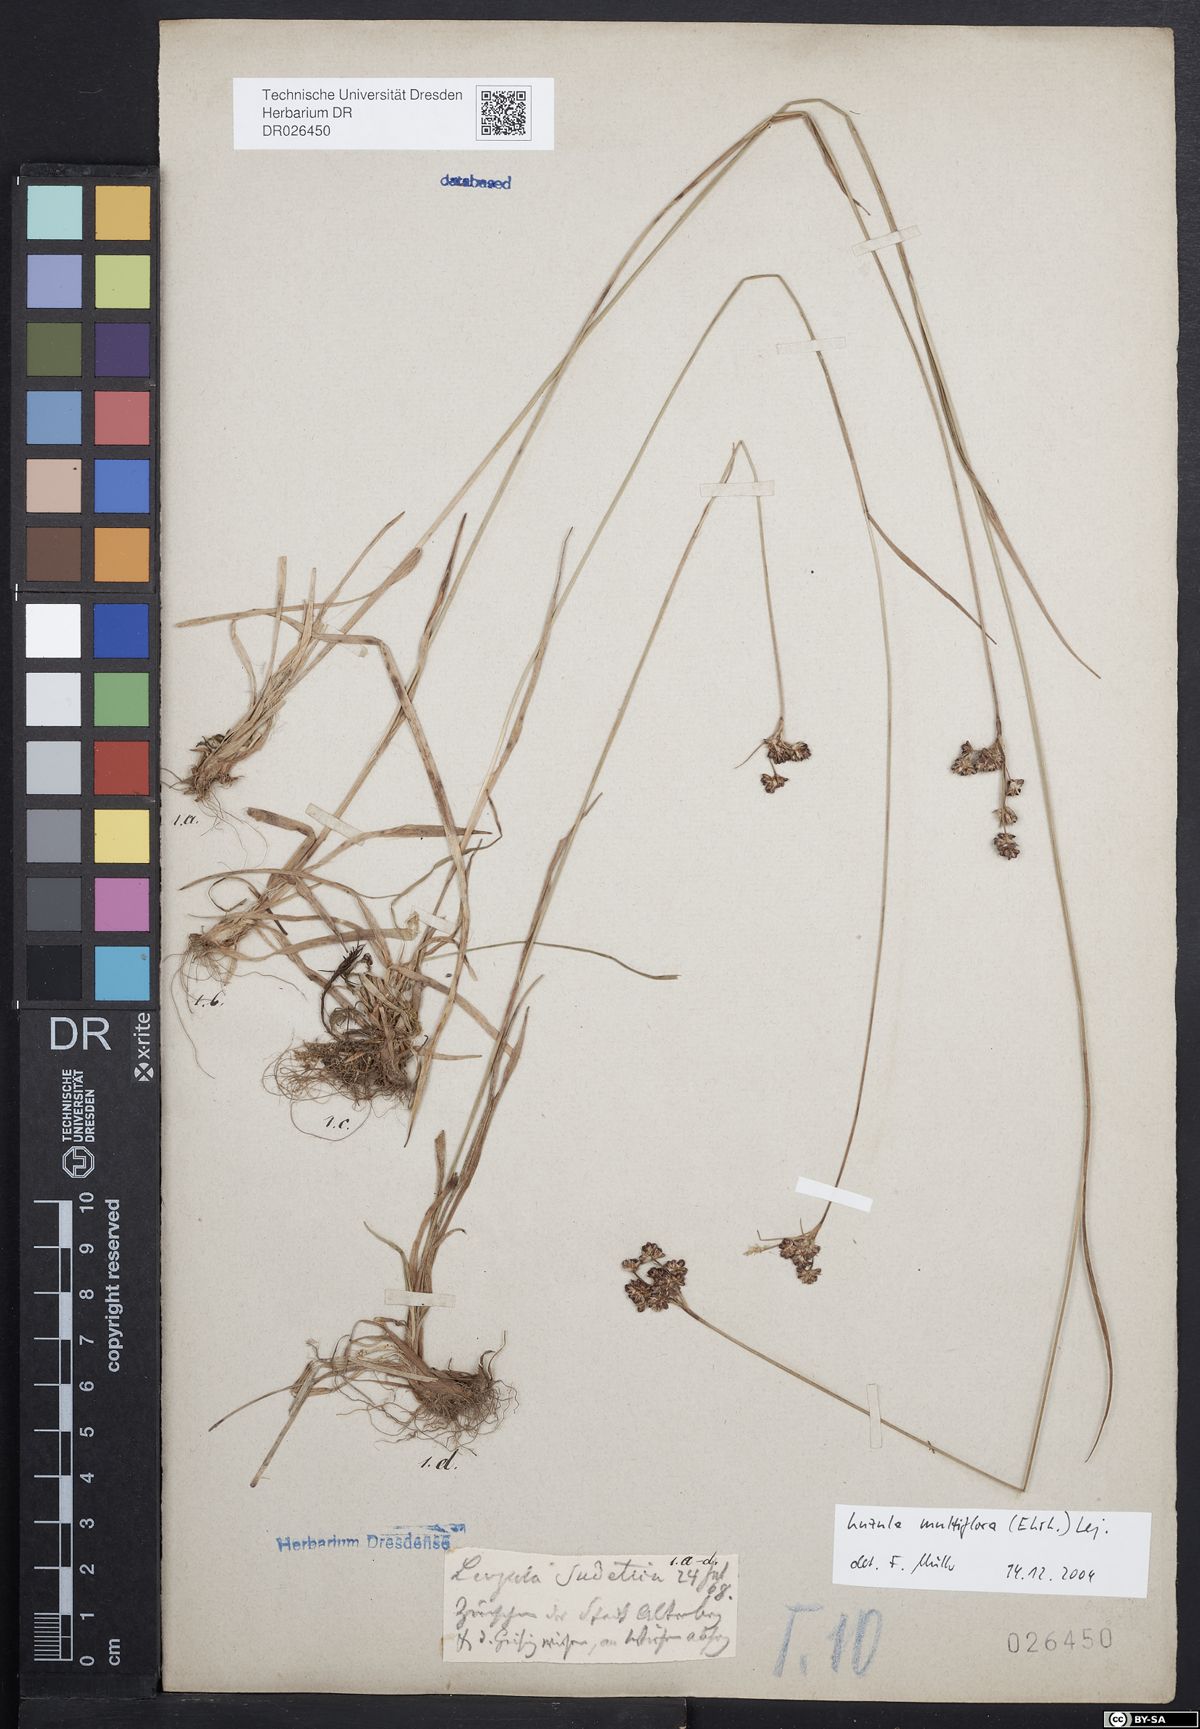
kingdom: Plantae
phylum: Tracheophyta
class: Liliopsida
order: Poales
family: Juncaceae
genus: Luzula
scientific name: Luzula multiflora
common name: Heath wood-rush
